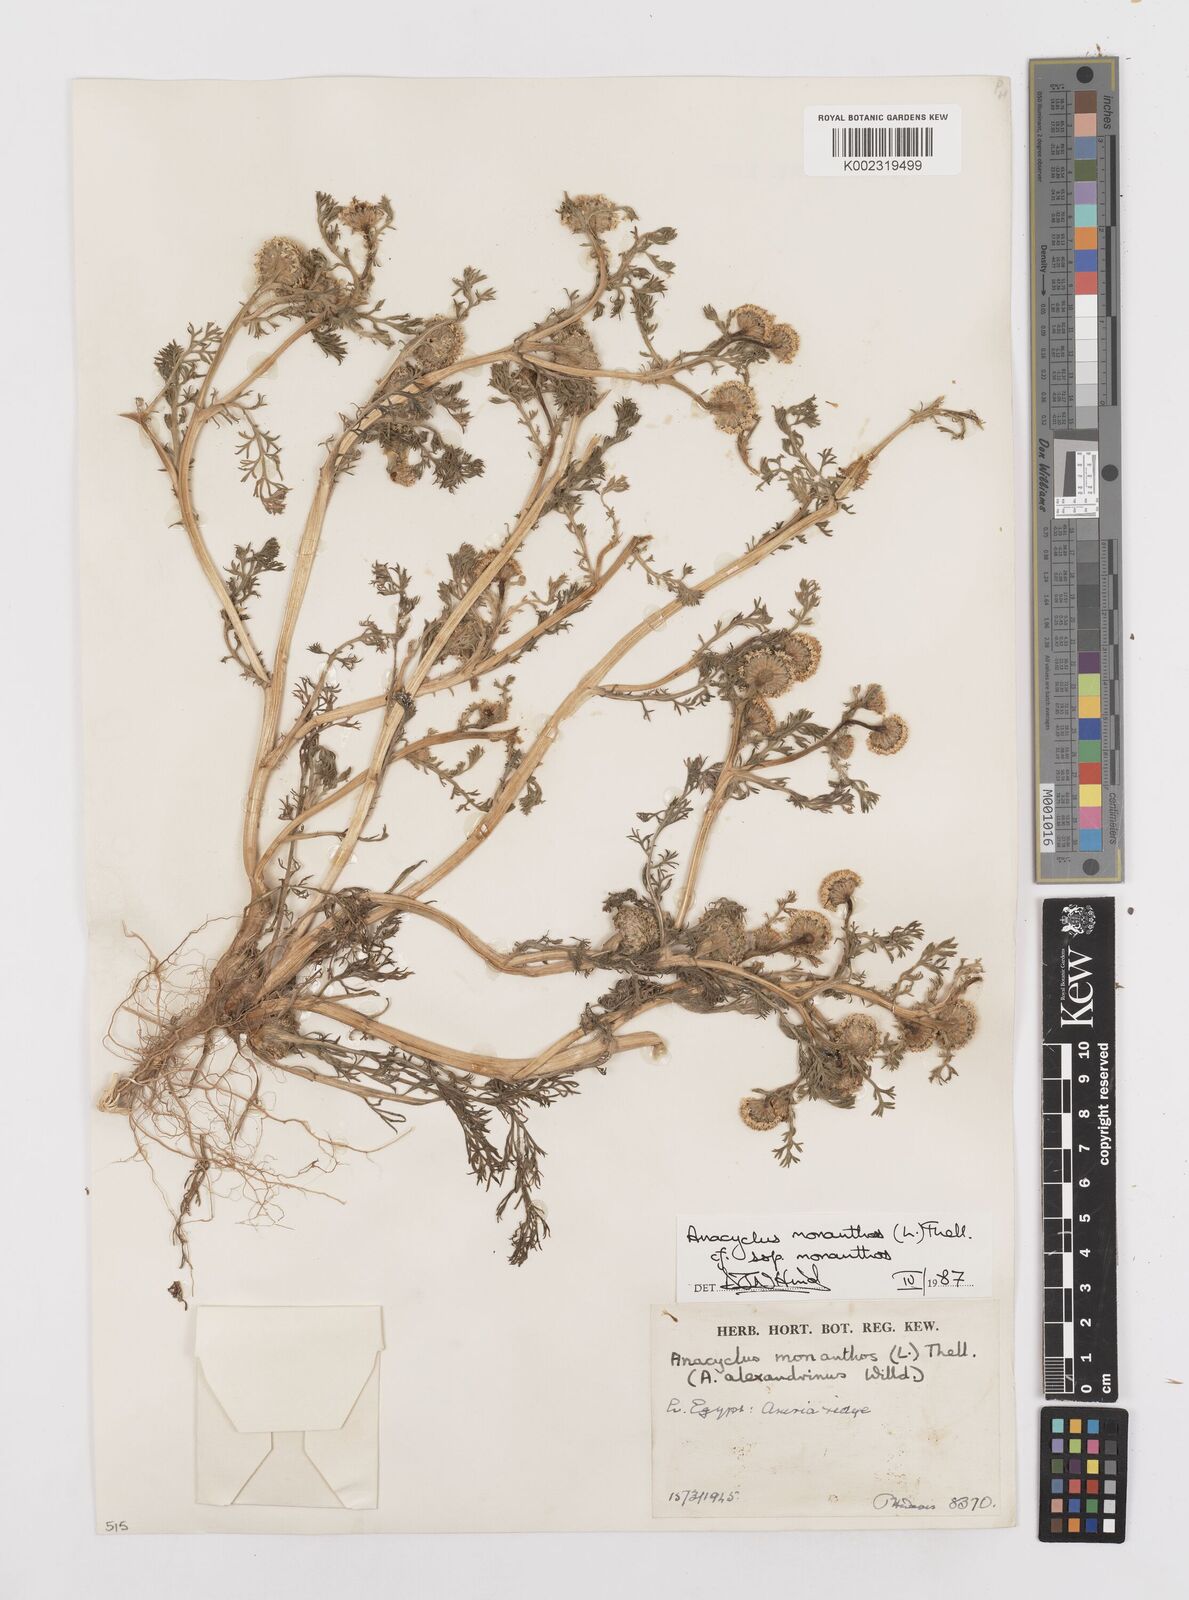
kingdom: Plantae
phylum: Tracheophyta
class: Magnoliopsida
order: Asterales
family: Asteraceae
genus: Anacyclus
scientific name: Anacyclus monanthos
